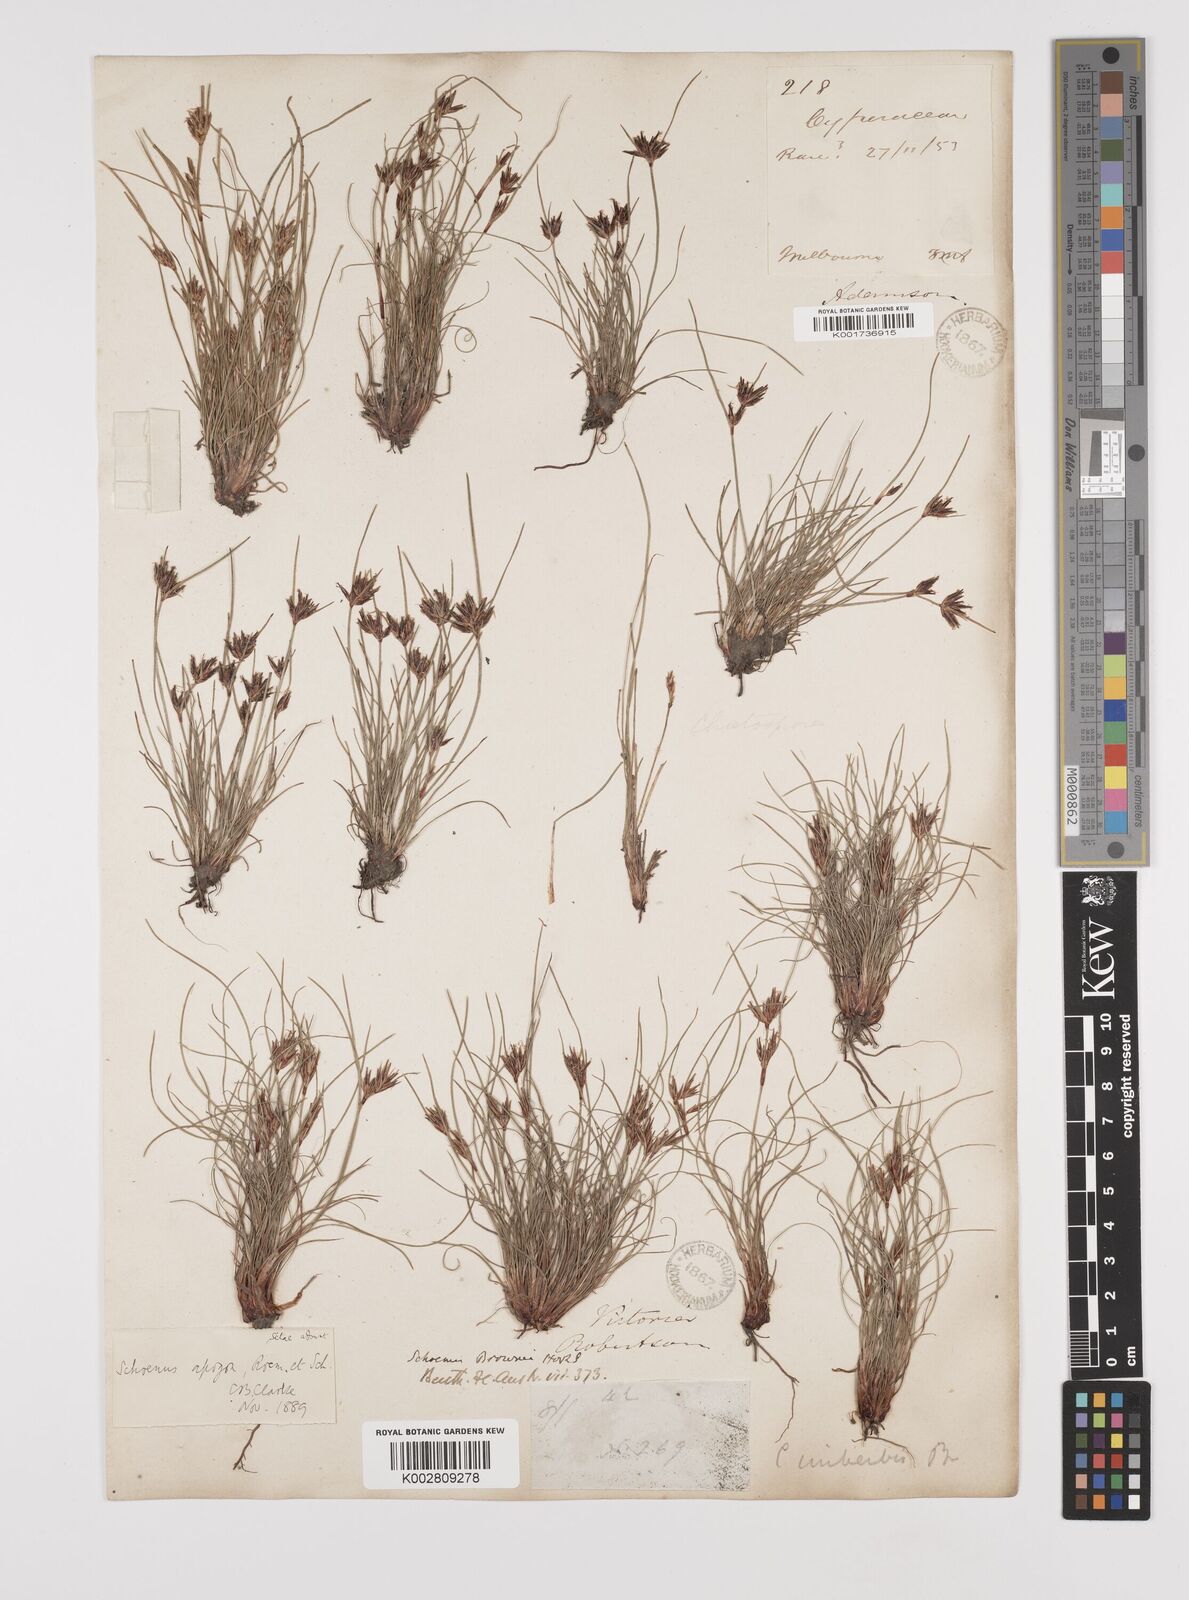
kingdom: Plantae
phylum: Tracheophyta
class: Liliopsida
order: Poales
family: Cyperaceae
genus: Schoenus
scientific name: Schoenus apogon
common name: Smooth bogrush
